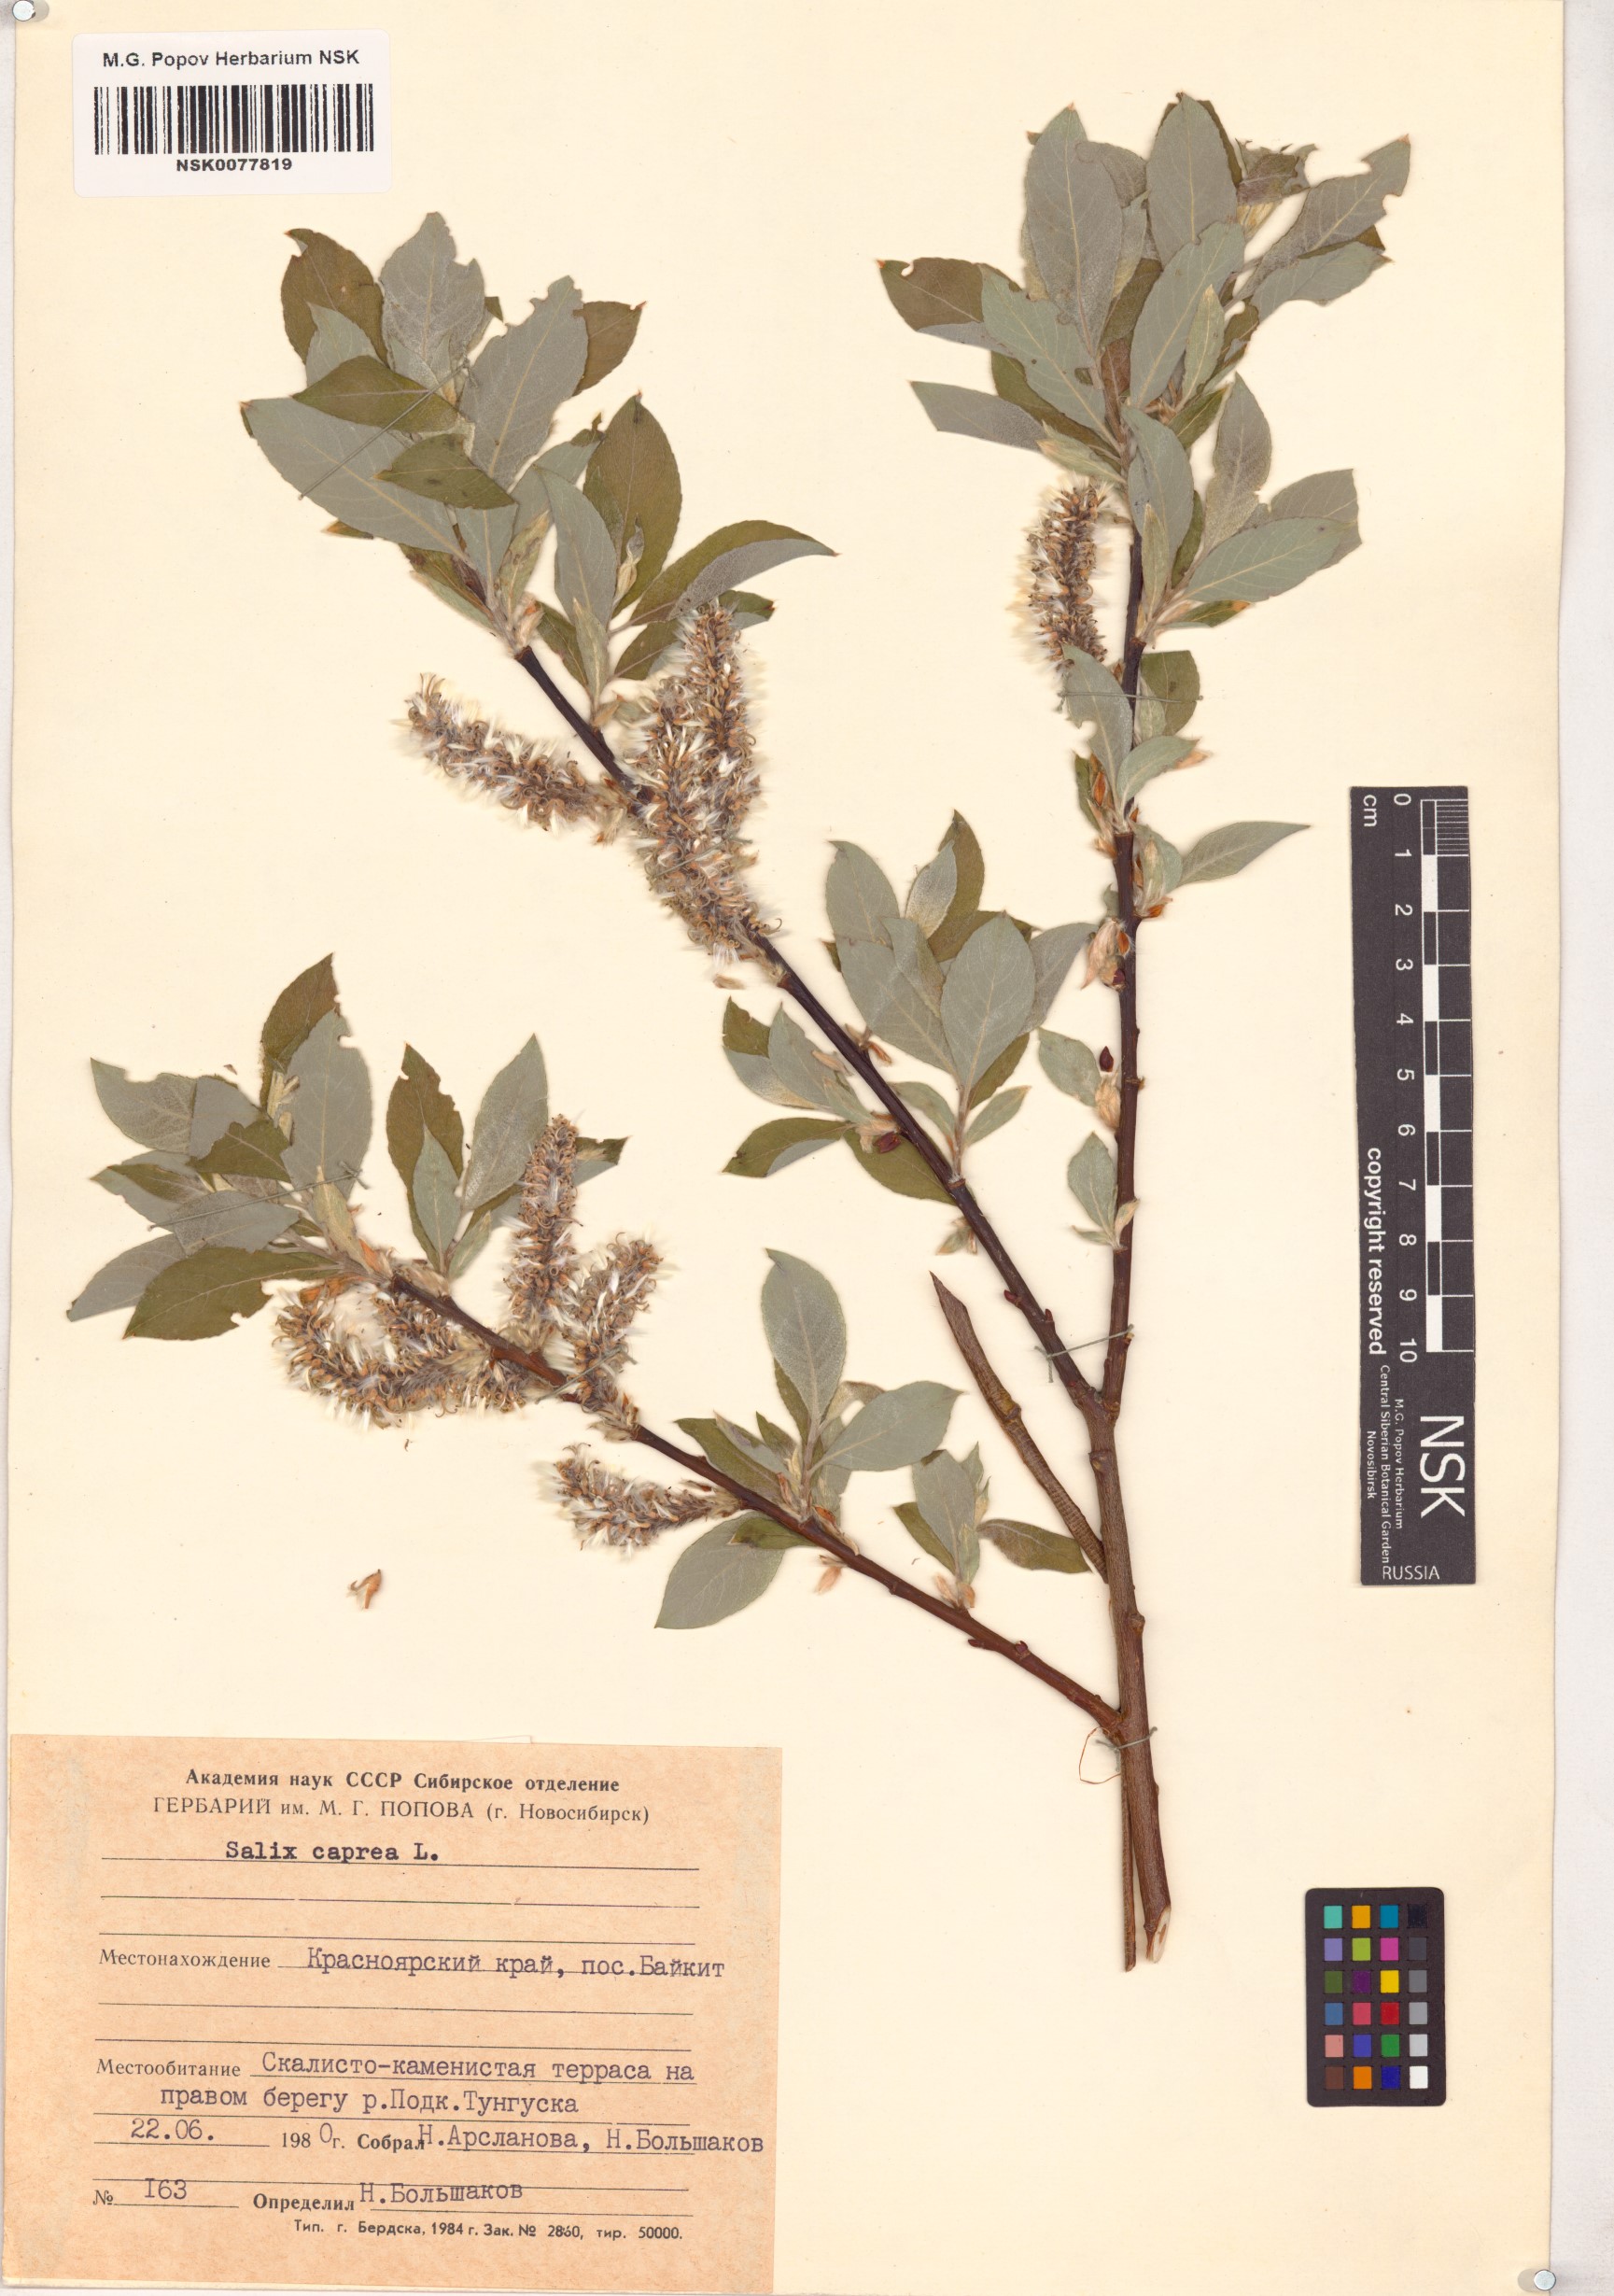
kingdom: Plantae
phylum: Tracheophyta
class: Magnoliopsida
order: Malpighiales
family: Salicaceae
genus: Salix
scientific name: Salix caprea
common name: Goat willow
